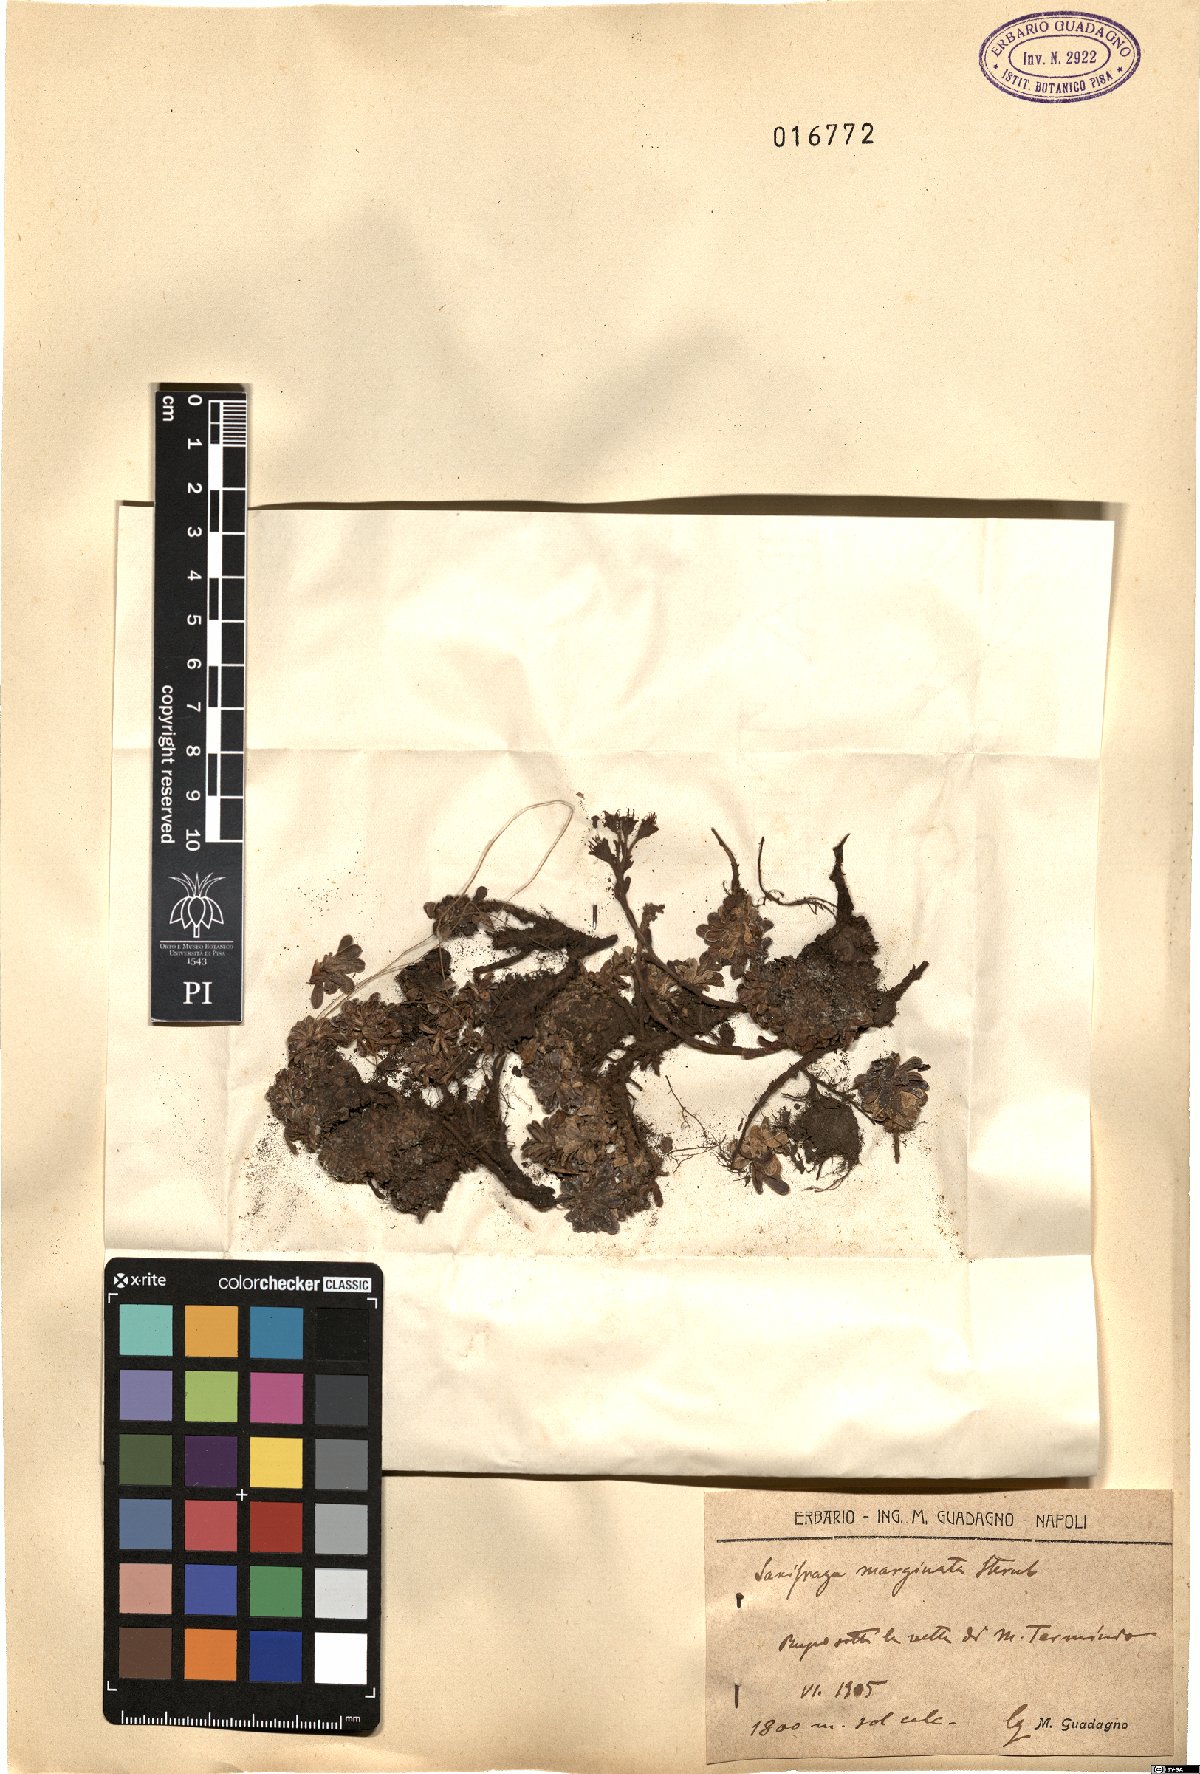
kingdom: Plantae
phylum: Tracheophyta
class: Magnoliopsida
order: Saxifragales
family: Saxifragaceae
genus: Saxifraga
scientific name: Saxifraga marginata
